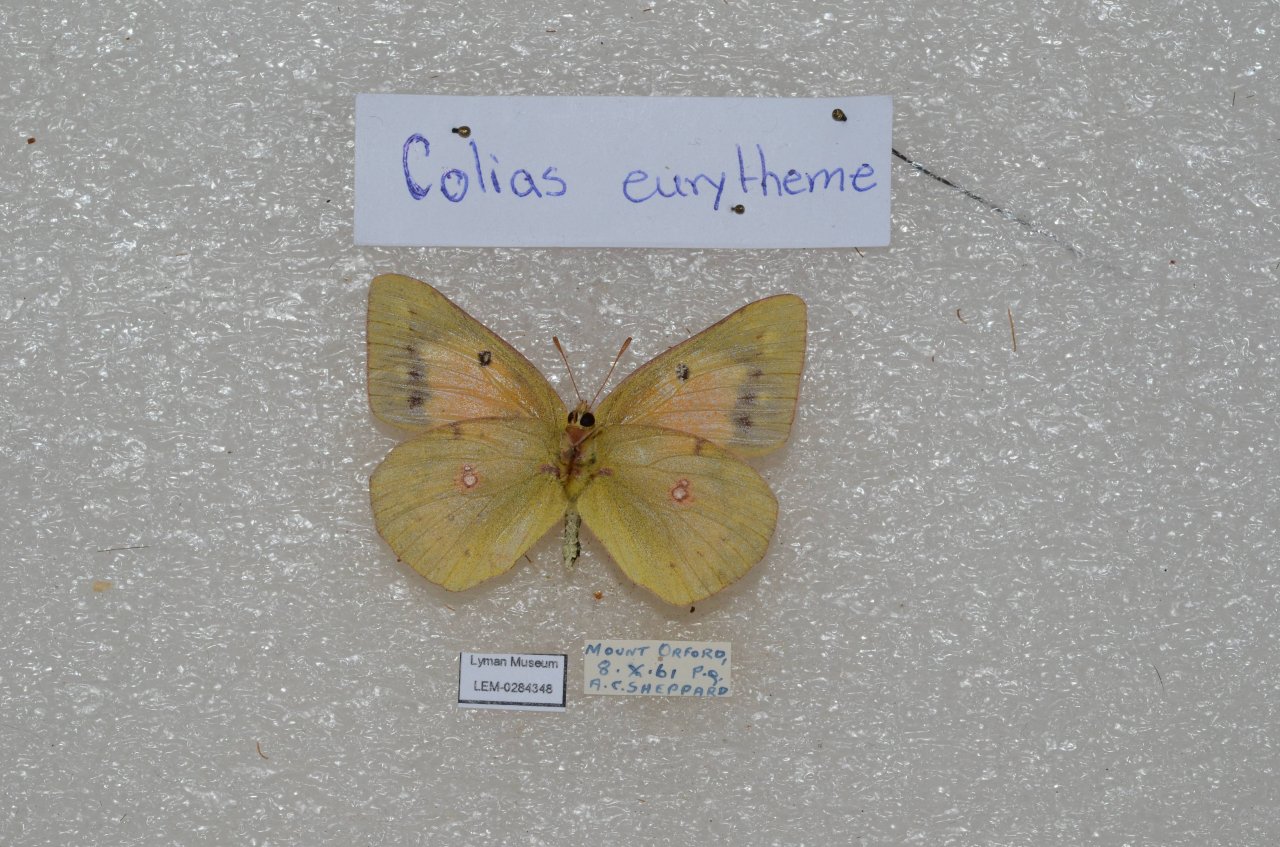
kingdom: Animalia
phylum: Arthropoda
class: Insecta
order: Lepidoptera
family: Pieridae
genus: Colias
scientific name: Colias eurytheme
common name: Orange Sulphur
